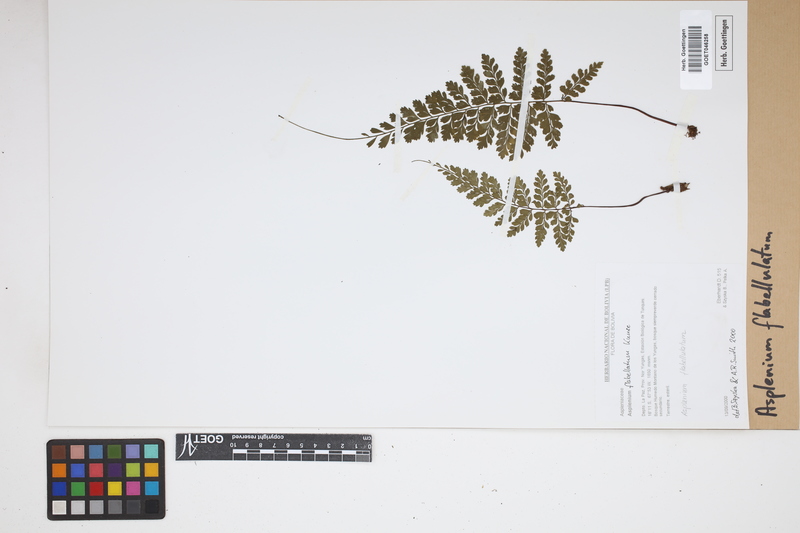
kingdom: Plantae
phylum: Tracheophyta
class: Polypodiopsida
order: Polypodiales
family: Aspleniaceae
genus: Asplenium
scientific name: Asplenium flabellulatum
